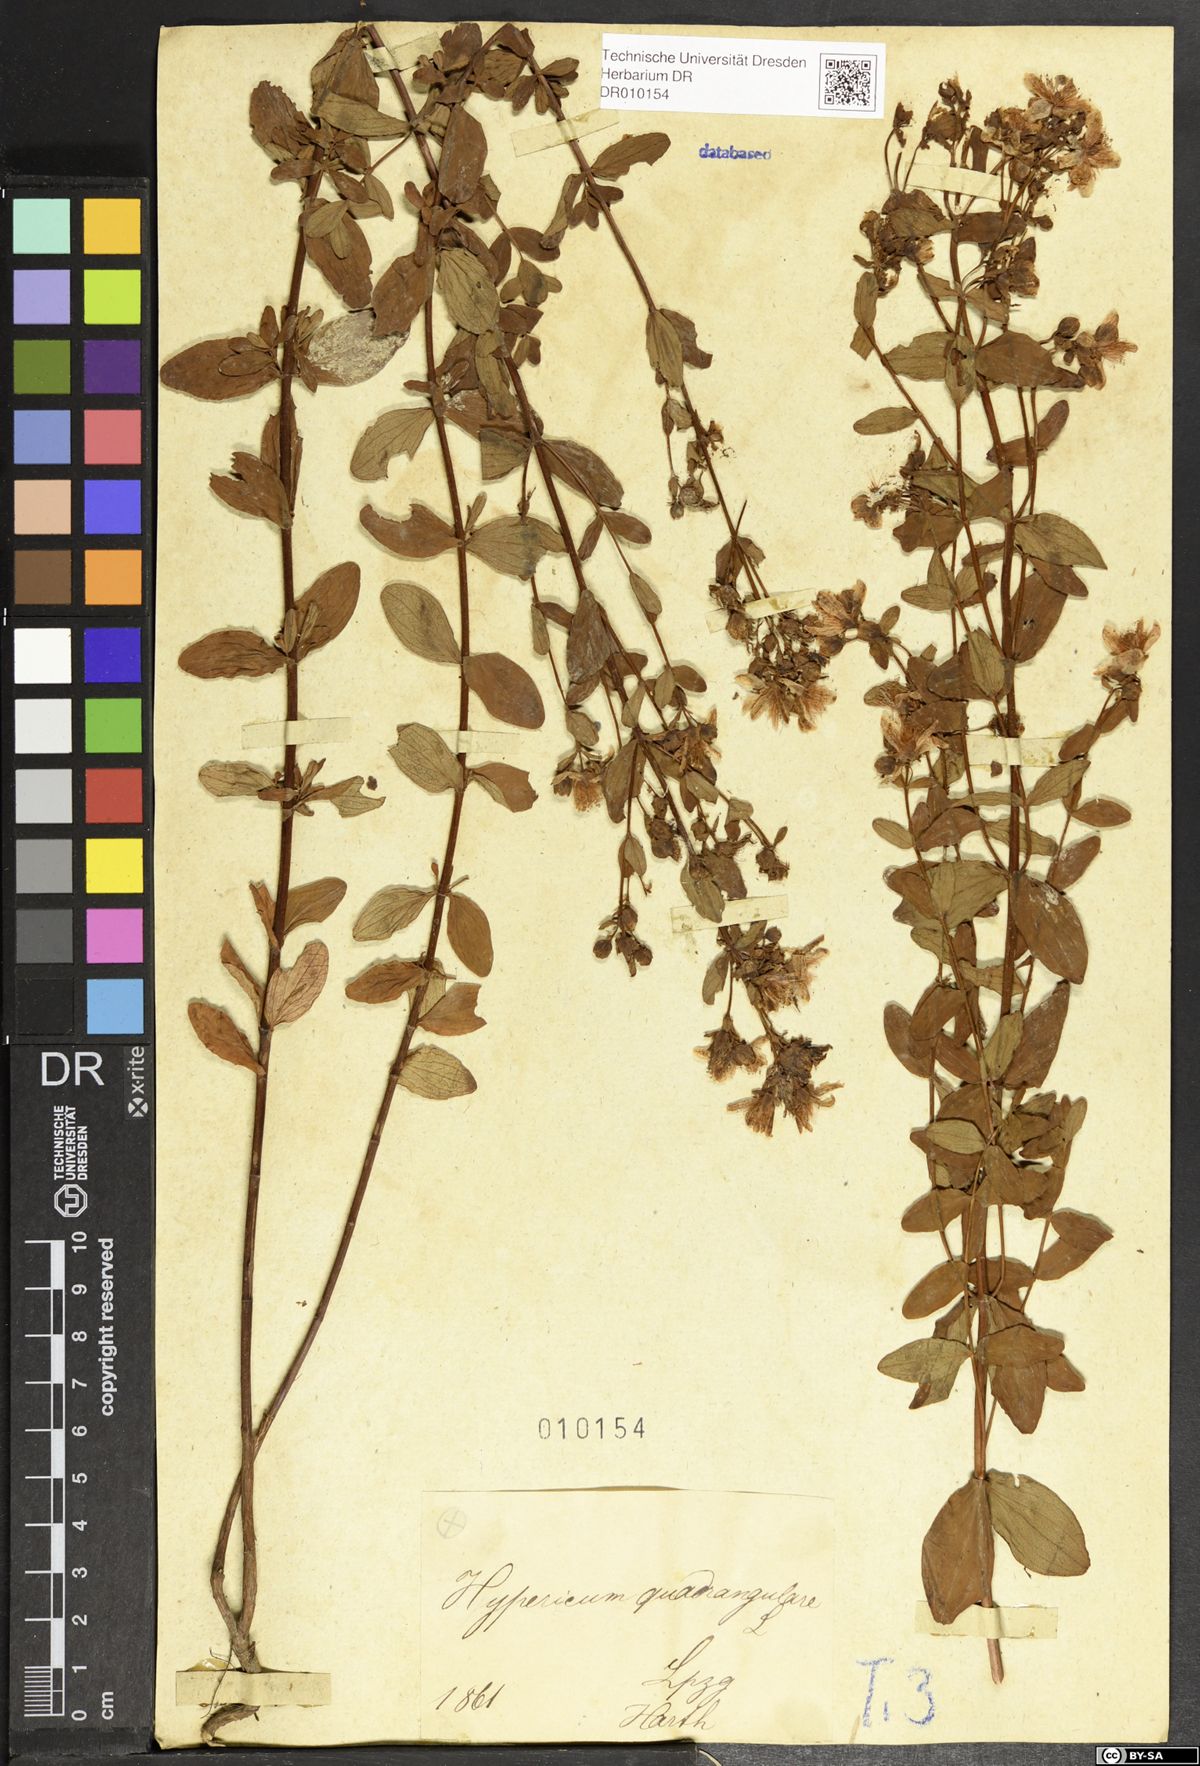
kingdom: Plantae
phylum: Tracheophyta
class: Magnoliopsida
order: Malpighiales
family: Hypericaceae
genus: Hypericum
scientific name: Hypericum maculatum
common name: Imperforate st. john's-wort
